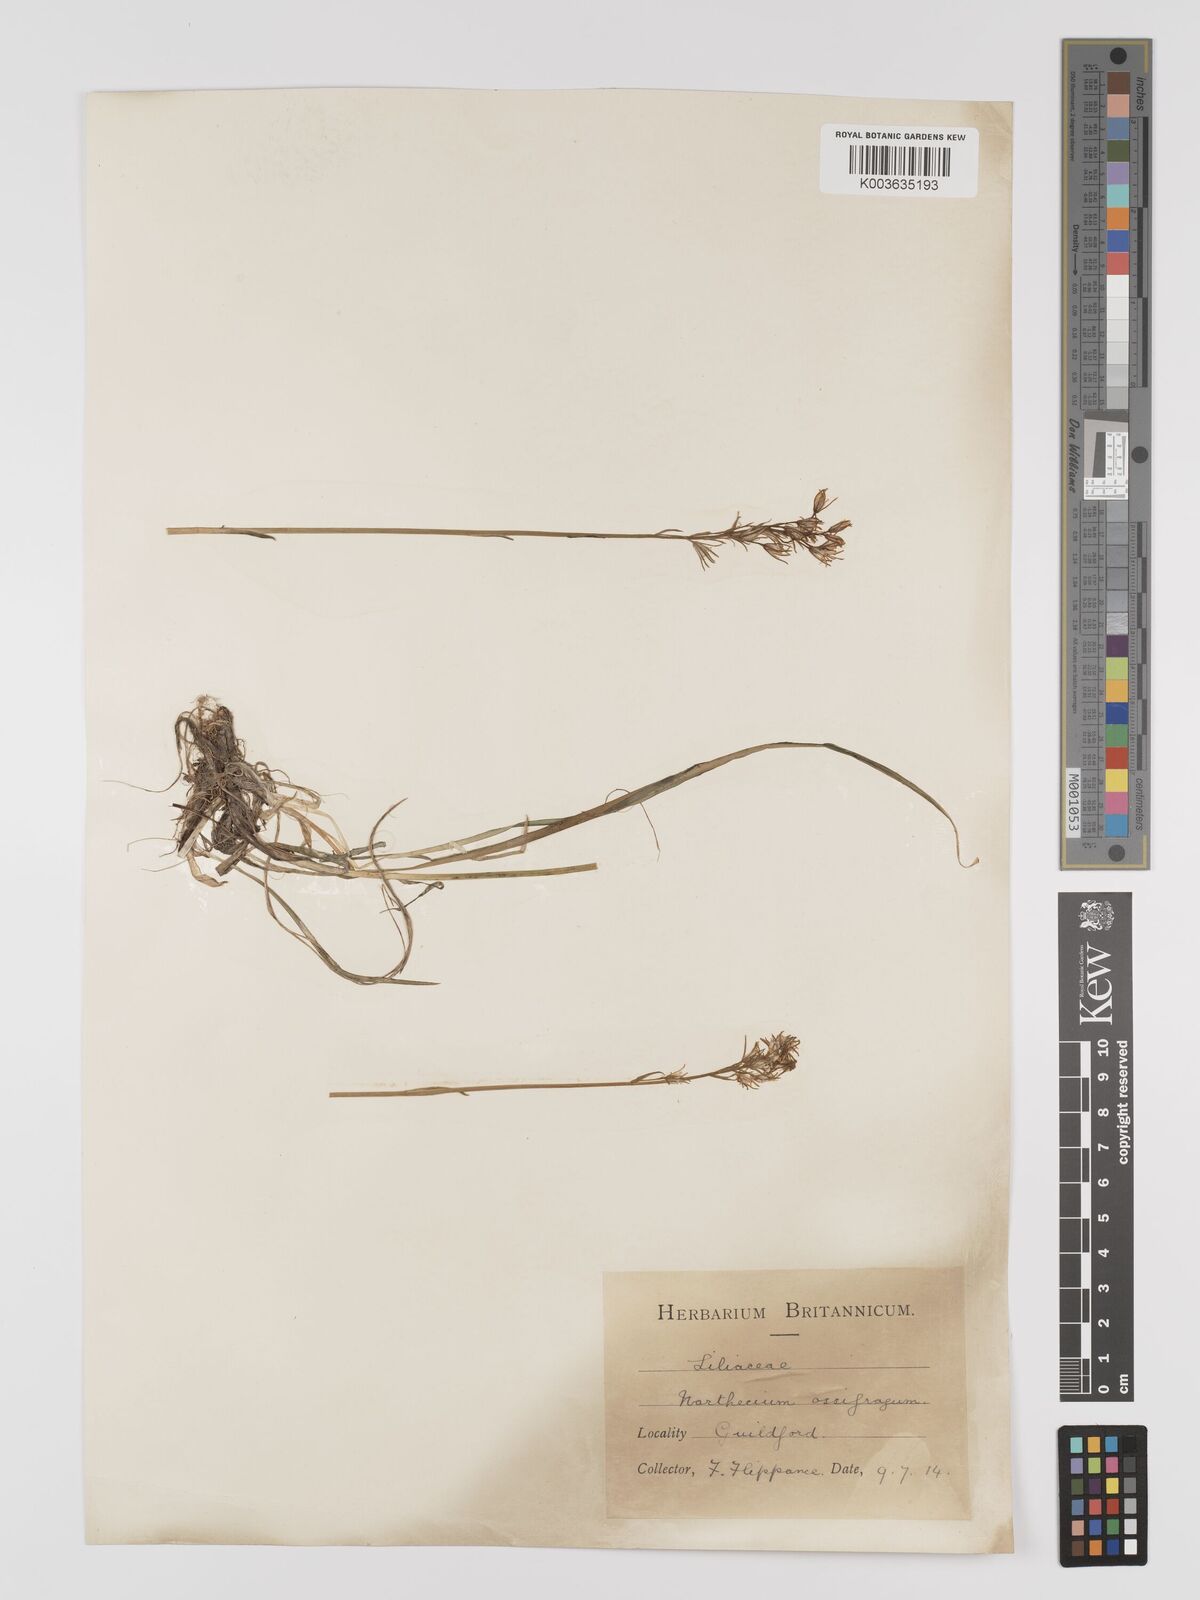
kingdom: Plantae
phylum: Tracheophyta
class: Liliopsida
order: Dioscoreales
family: Nartheciaceae
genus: Narthecium
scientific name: Narthecium
